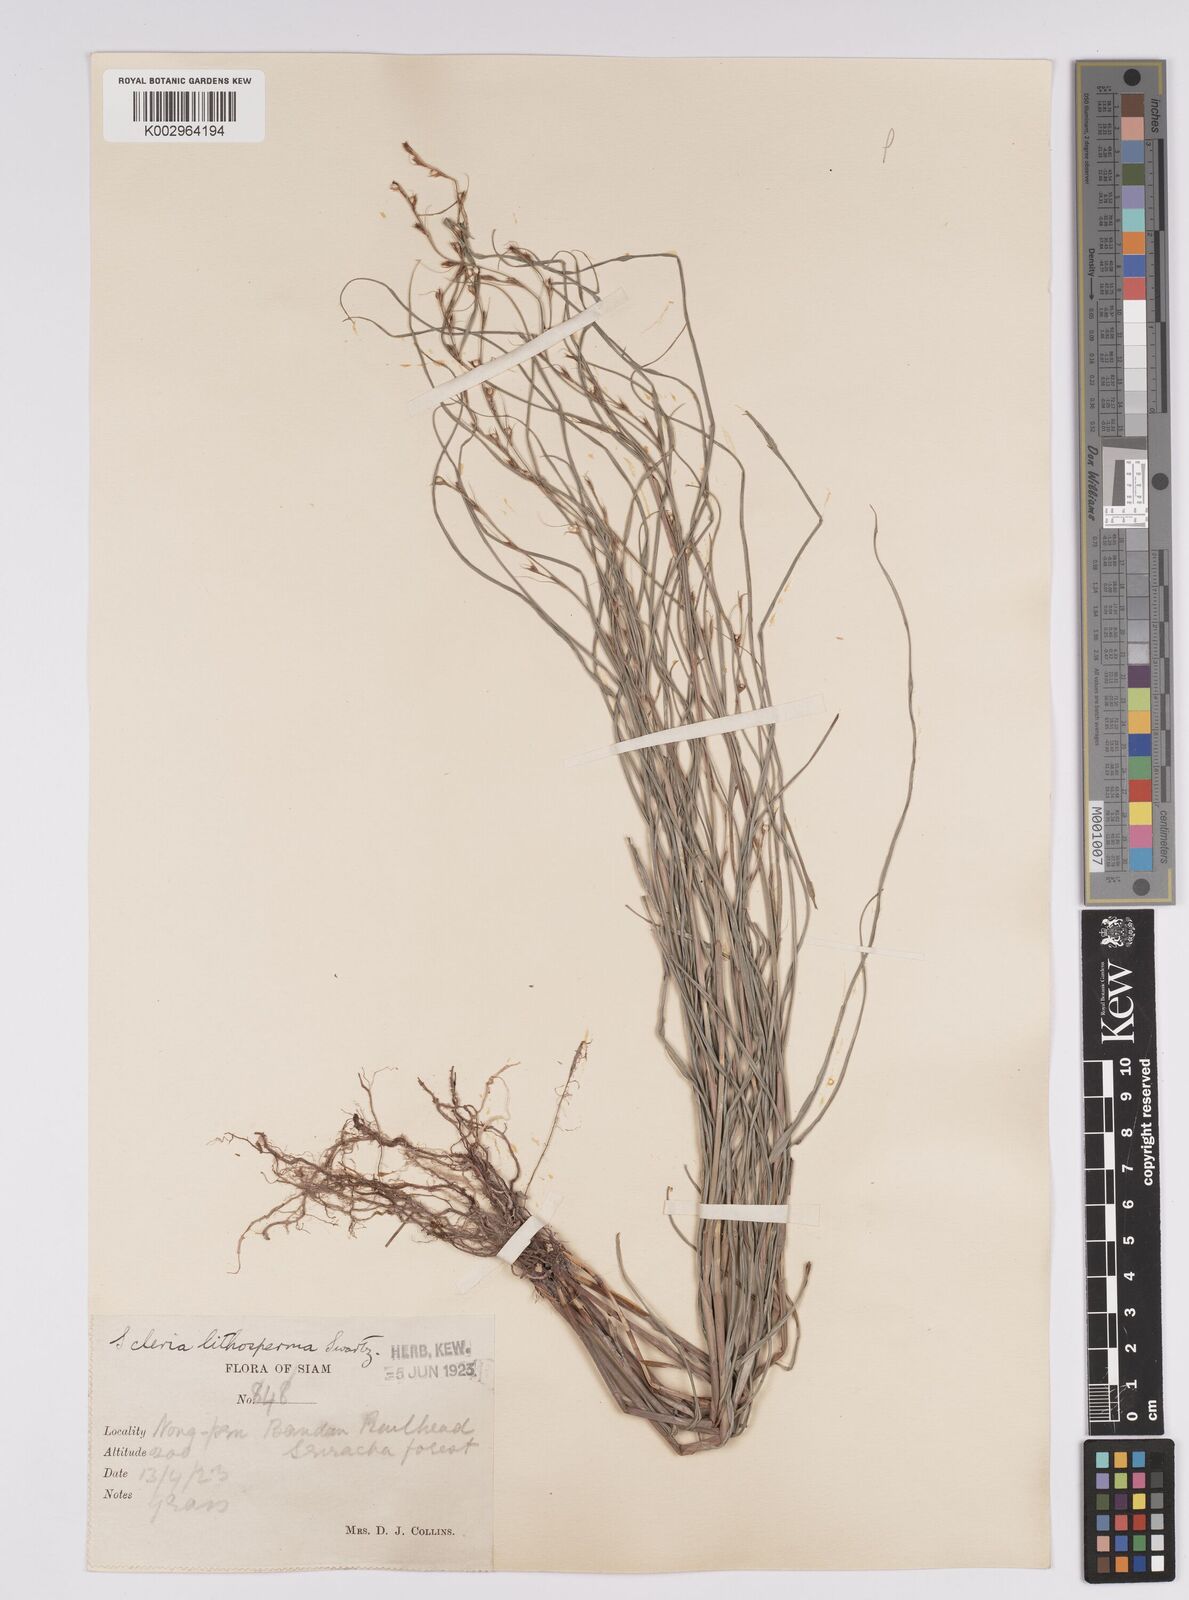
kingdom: Plantae
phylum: Tracheophyta
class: Liliopsida
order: Poales
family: Cyperaceae
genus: Scleria
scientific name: Scleria lithosperma
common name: Florida keys nut-rush
